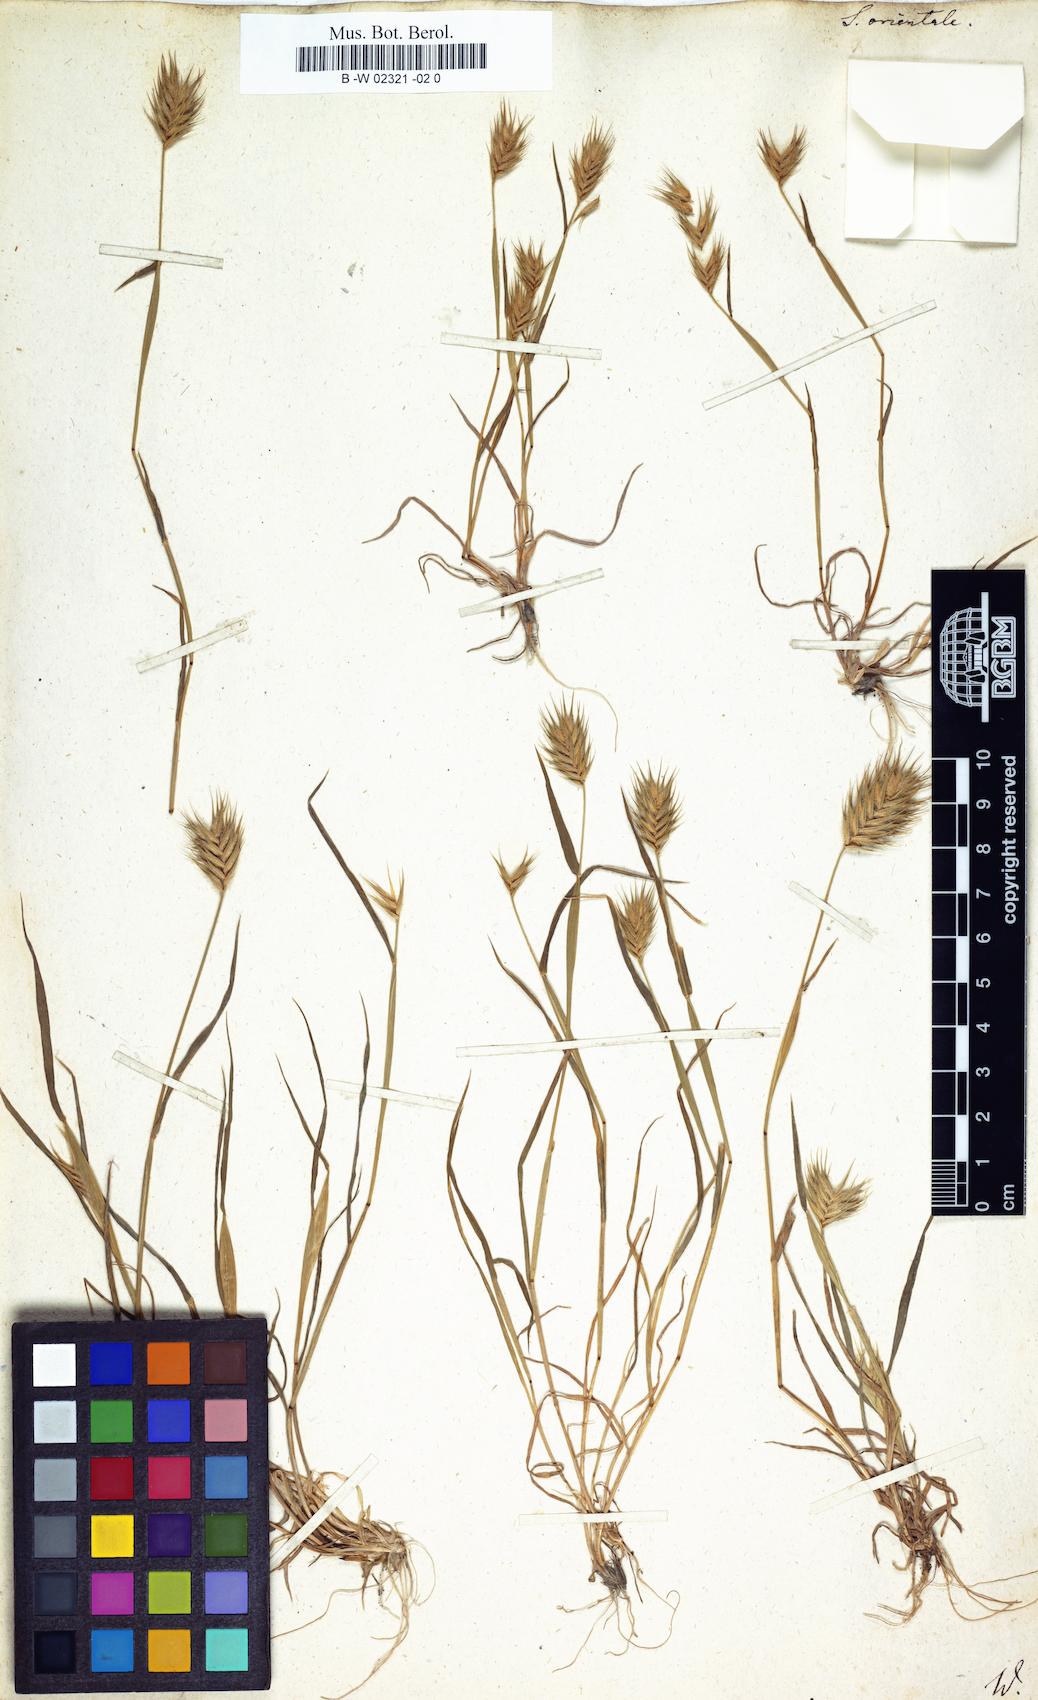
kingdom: Plantae
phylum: Tracheophyta
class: Liliopsida
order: Poales
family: Poaceae
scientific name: Poaceae
